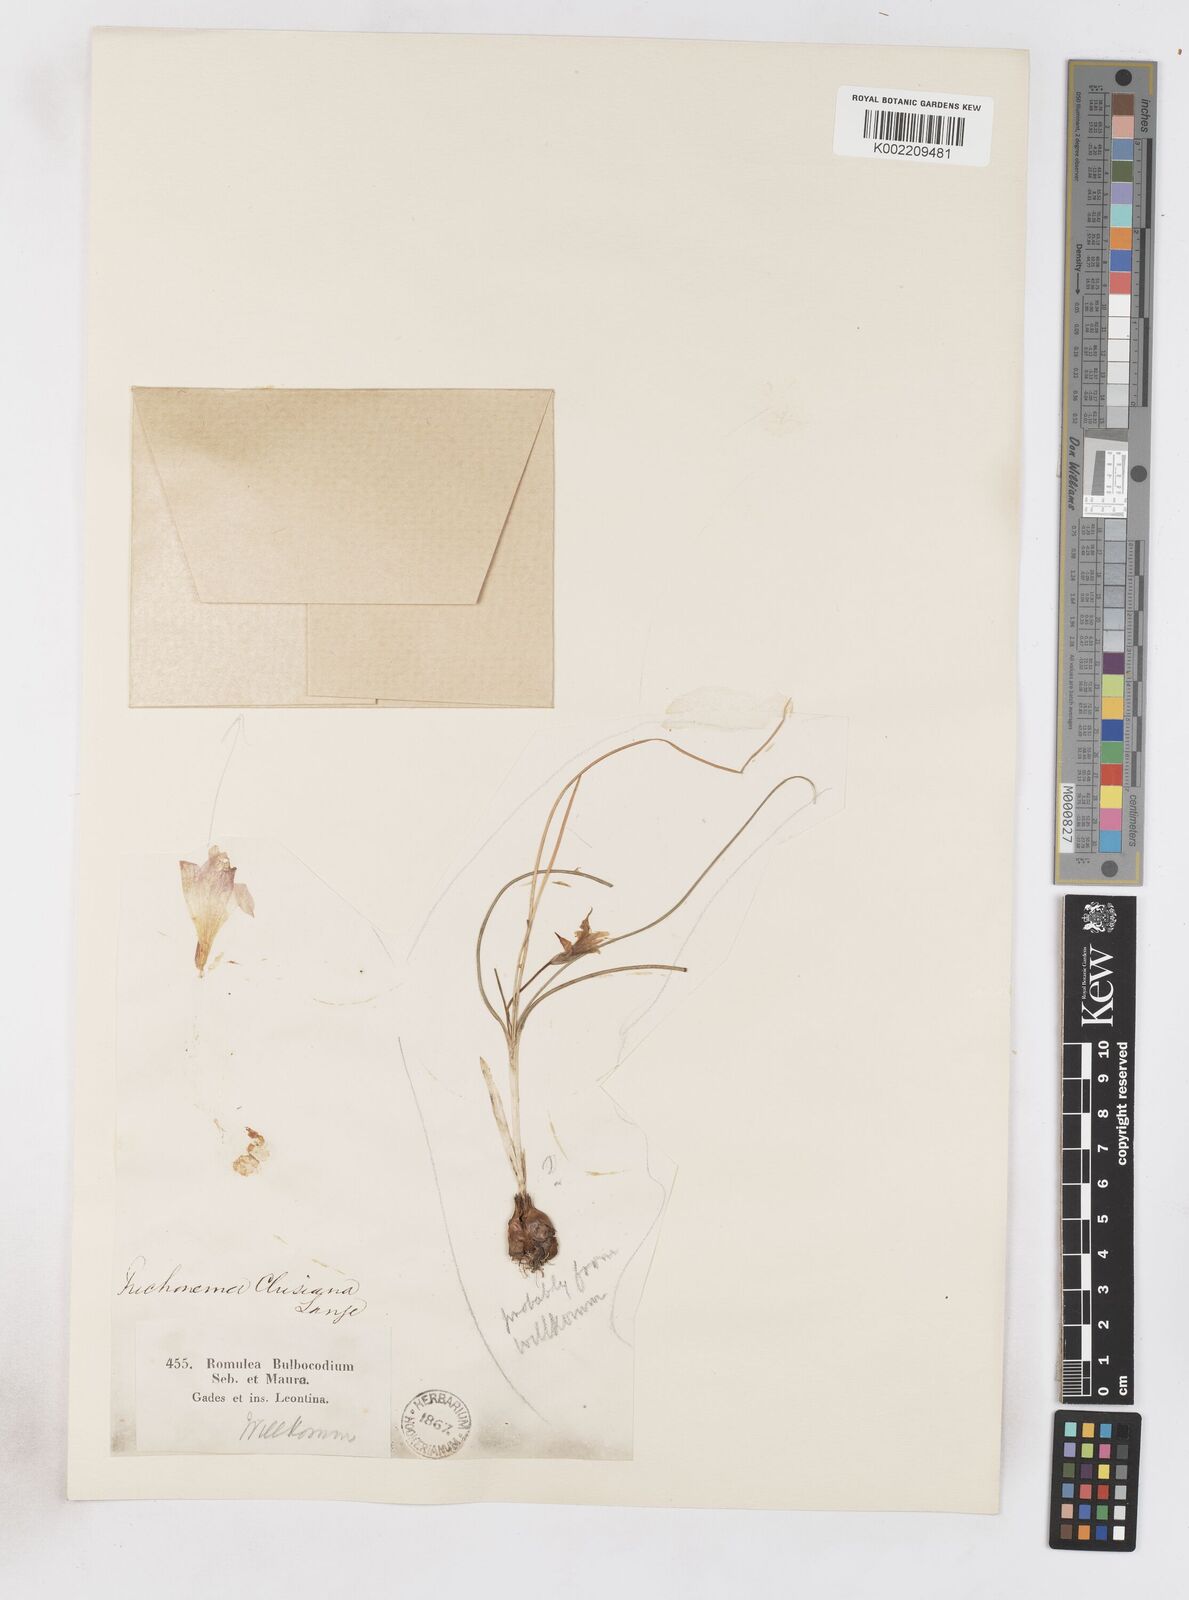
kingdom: Plantae
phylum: Tracheophyta
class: Liliopsida
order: Asparagales
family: Iridaceae
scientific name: Iridaceae
